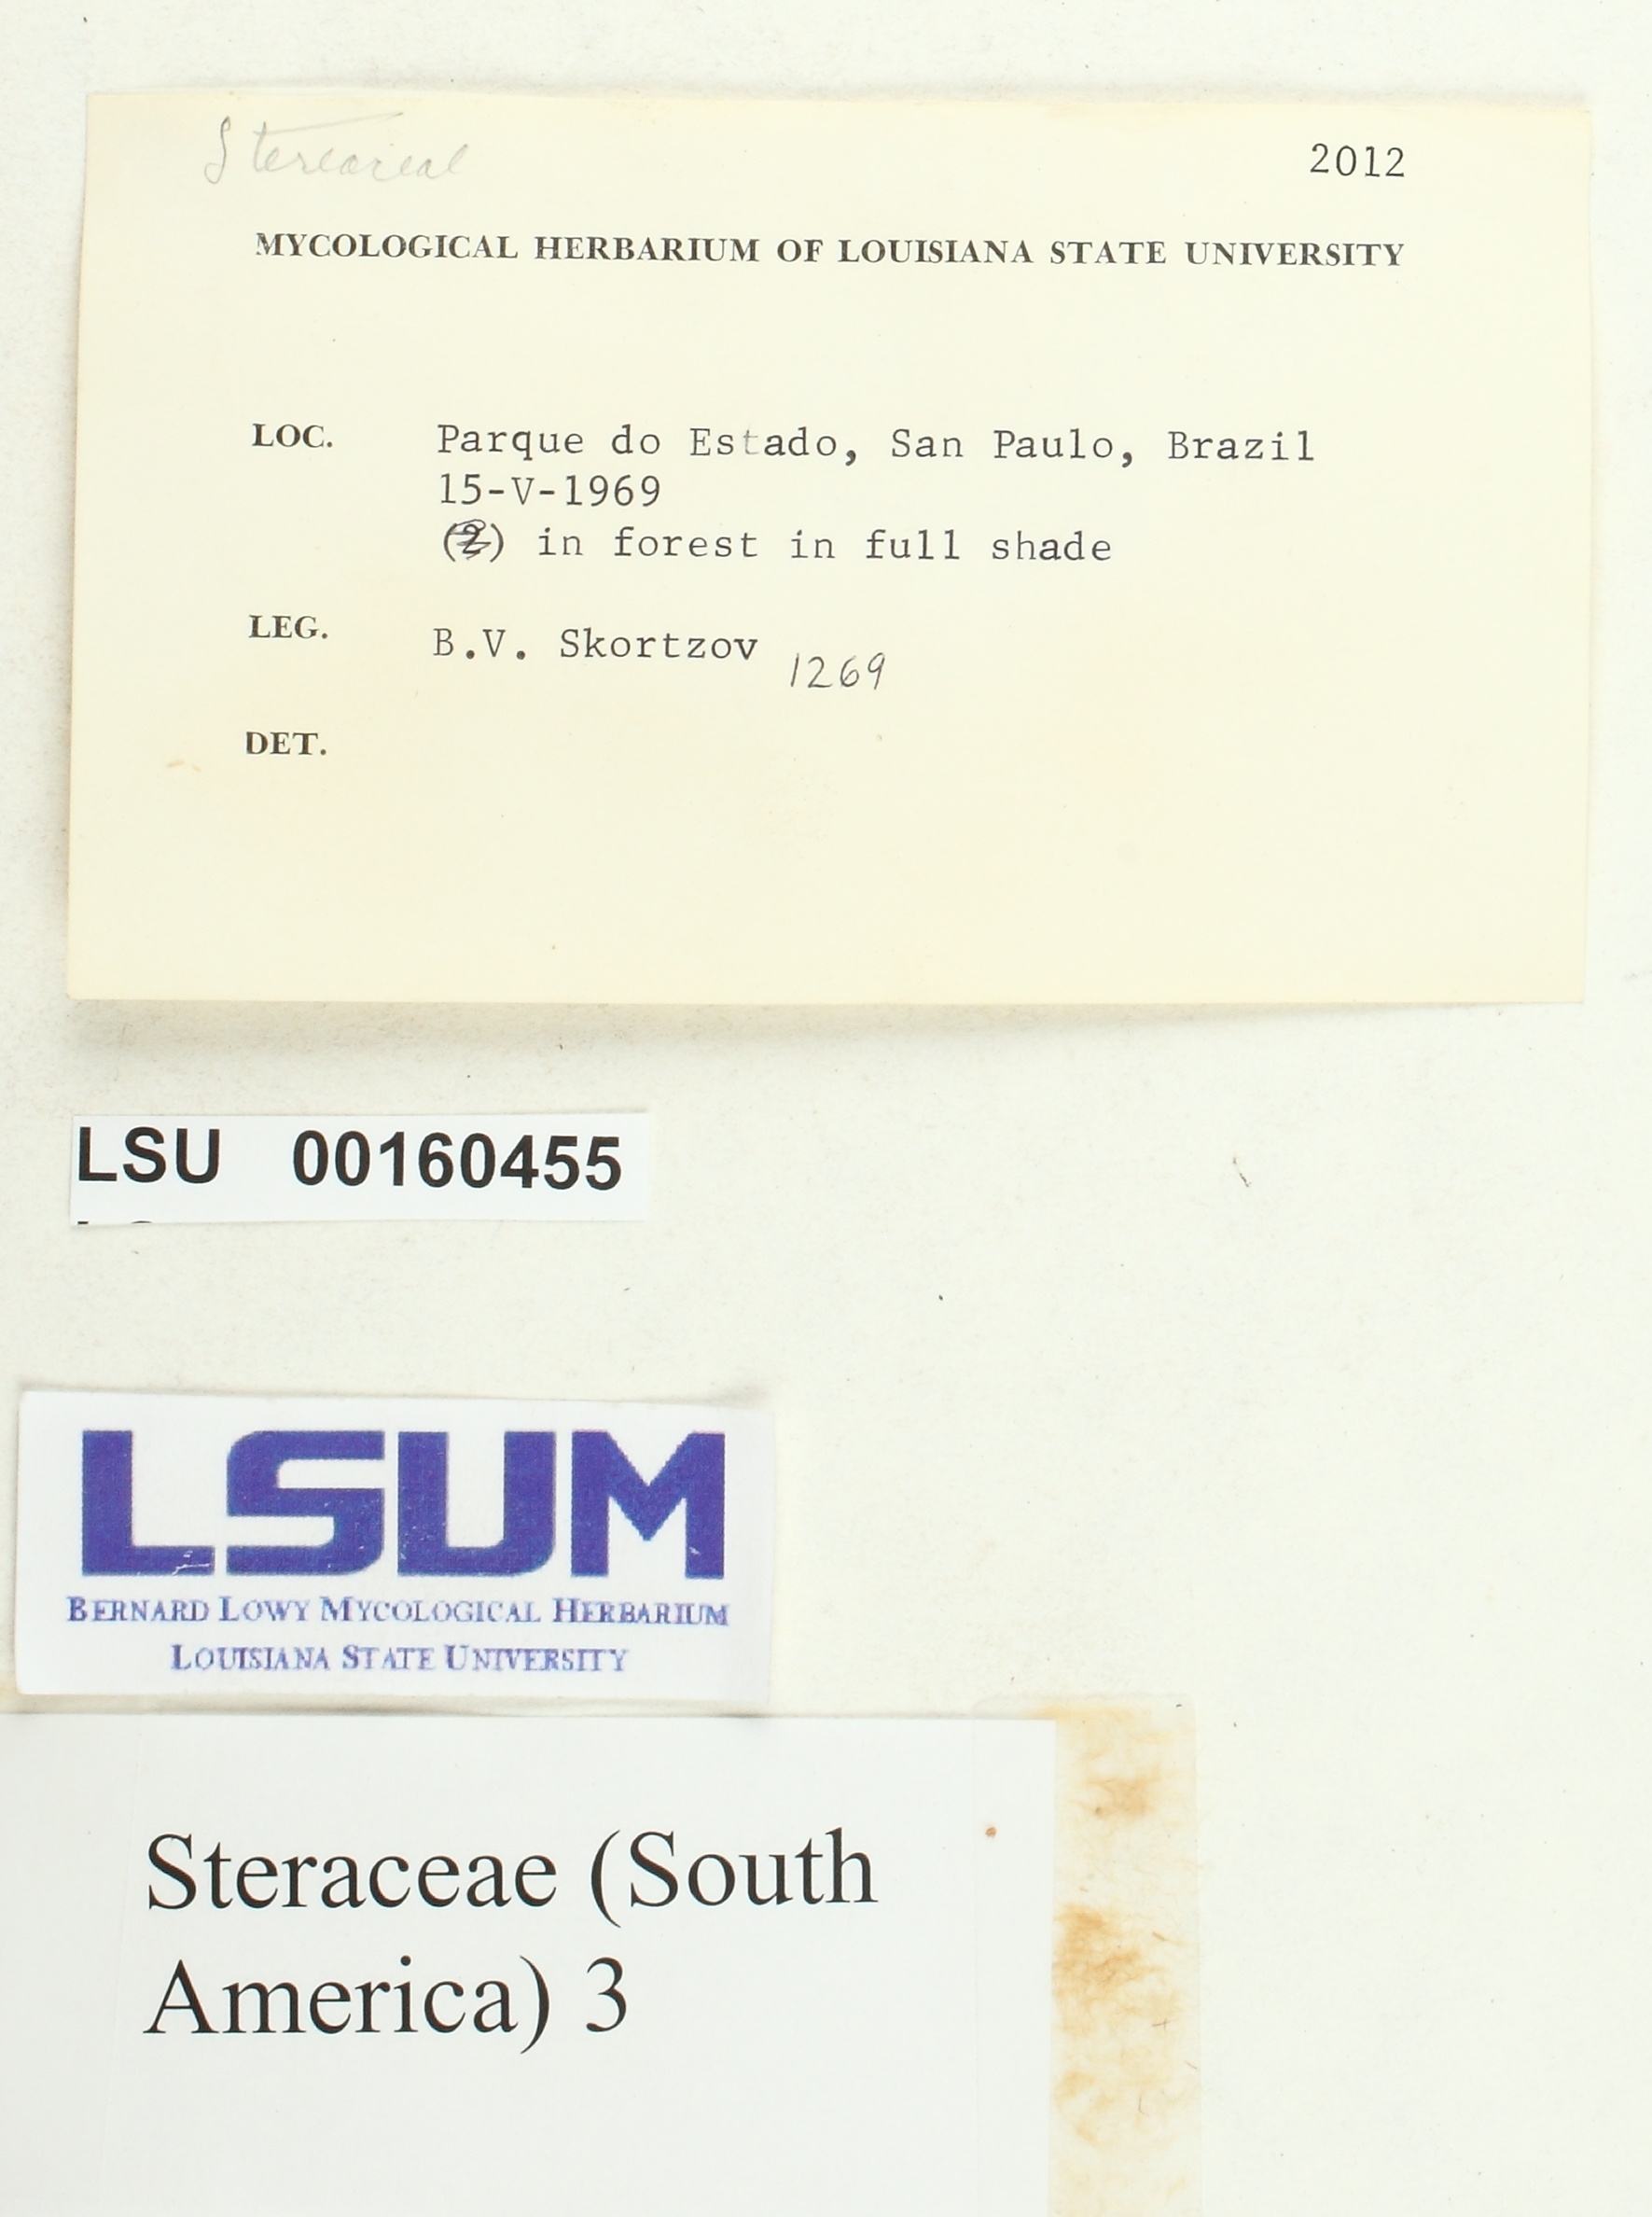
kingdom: Fungi
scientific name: Fungi
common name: Fungi
